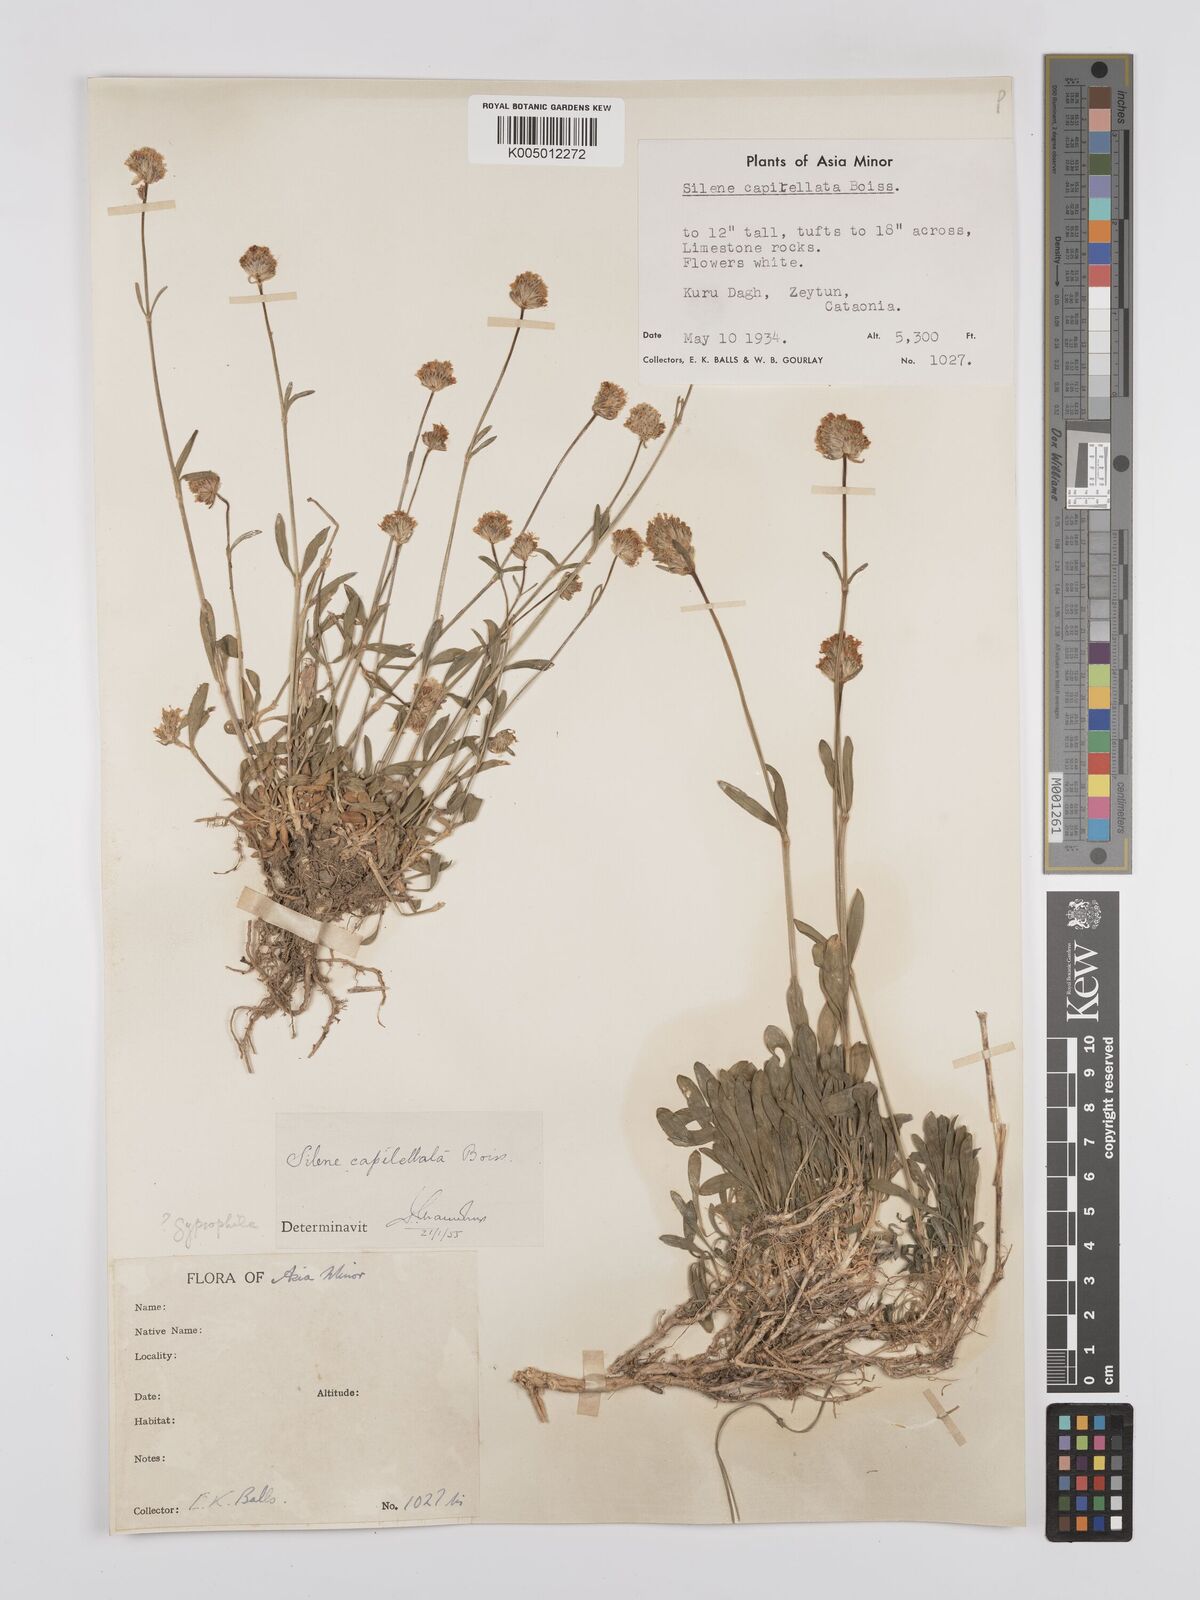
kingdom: Plantae
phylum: Tracheophyta
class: Magnoliopsida
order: Caryophyllales
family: Caryophyllaceae
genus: Silene
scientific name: Silene capitellata
